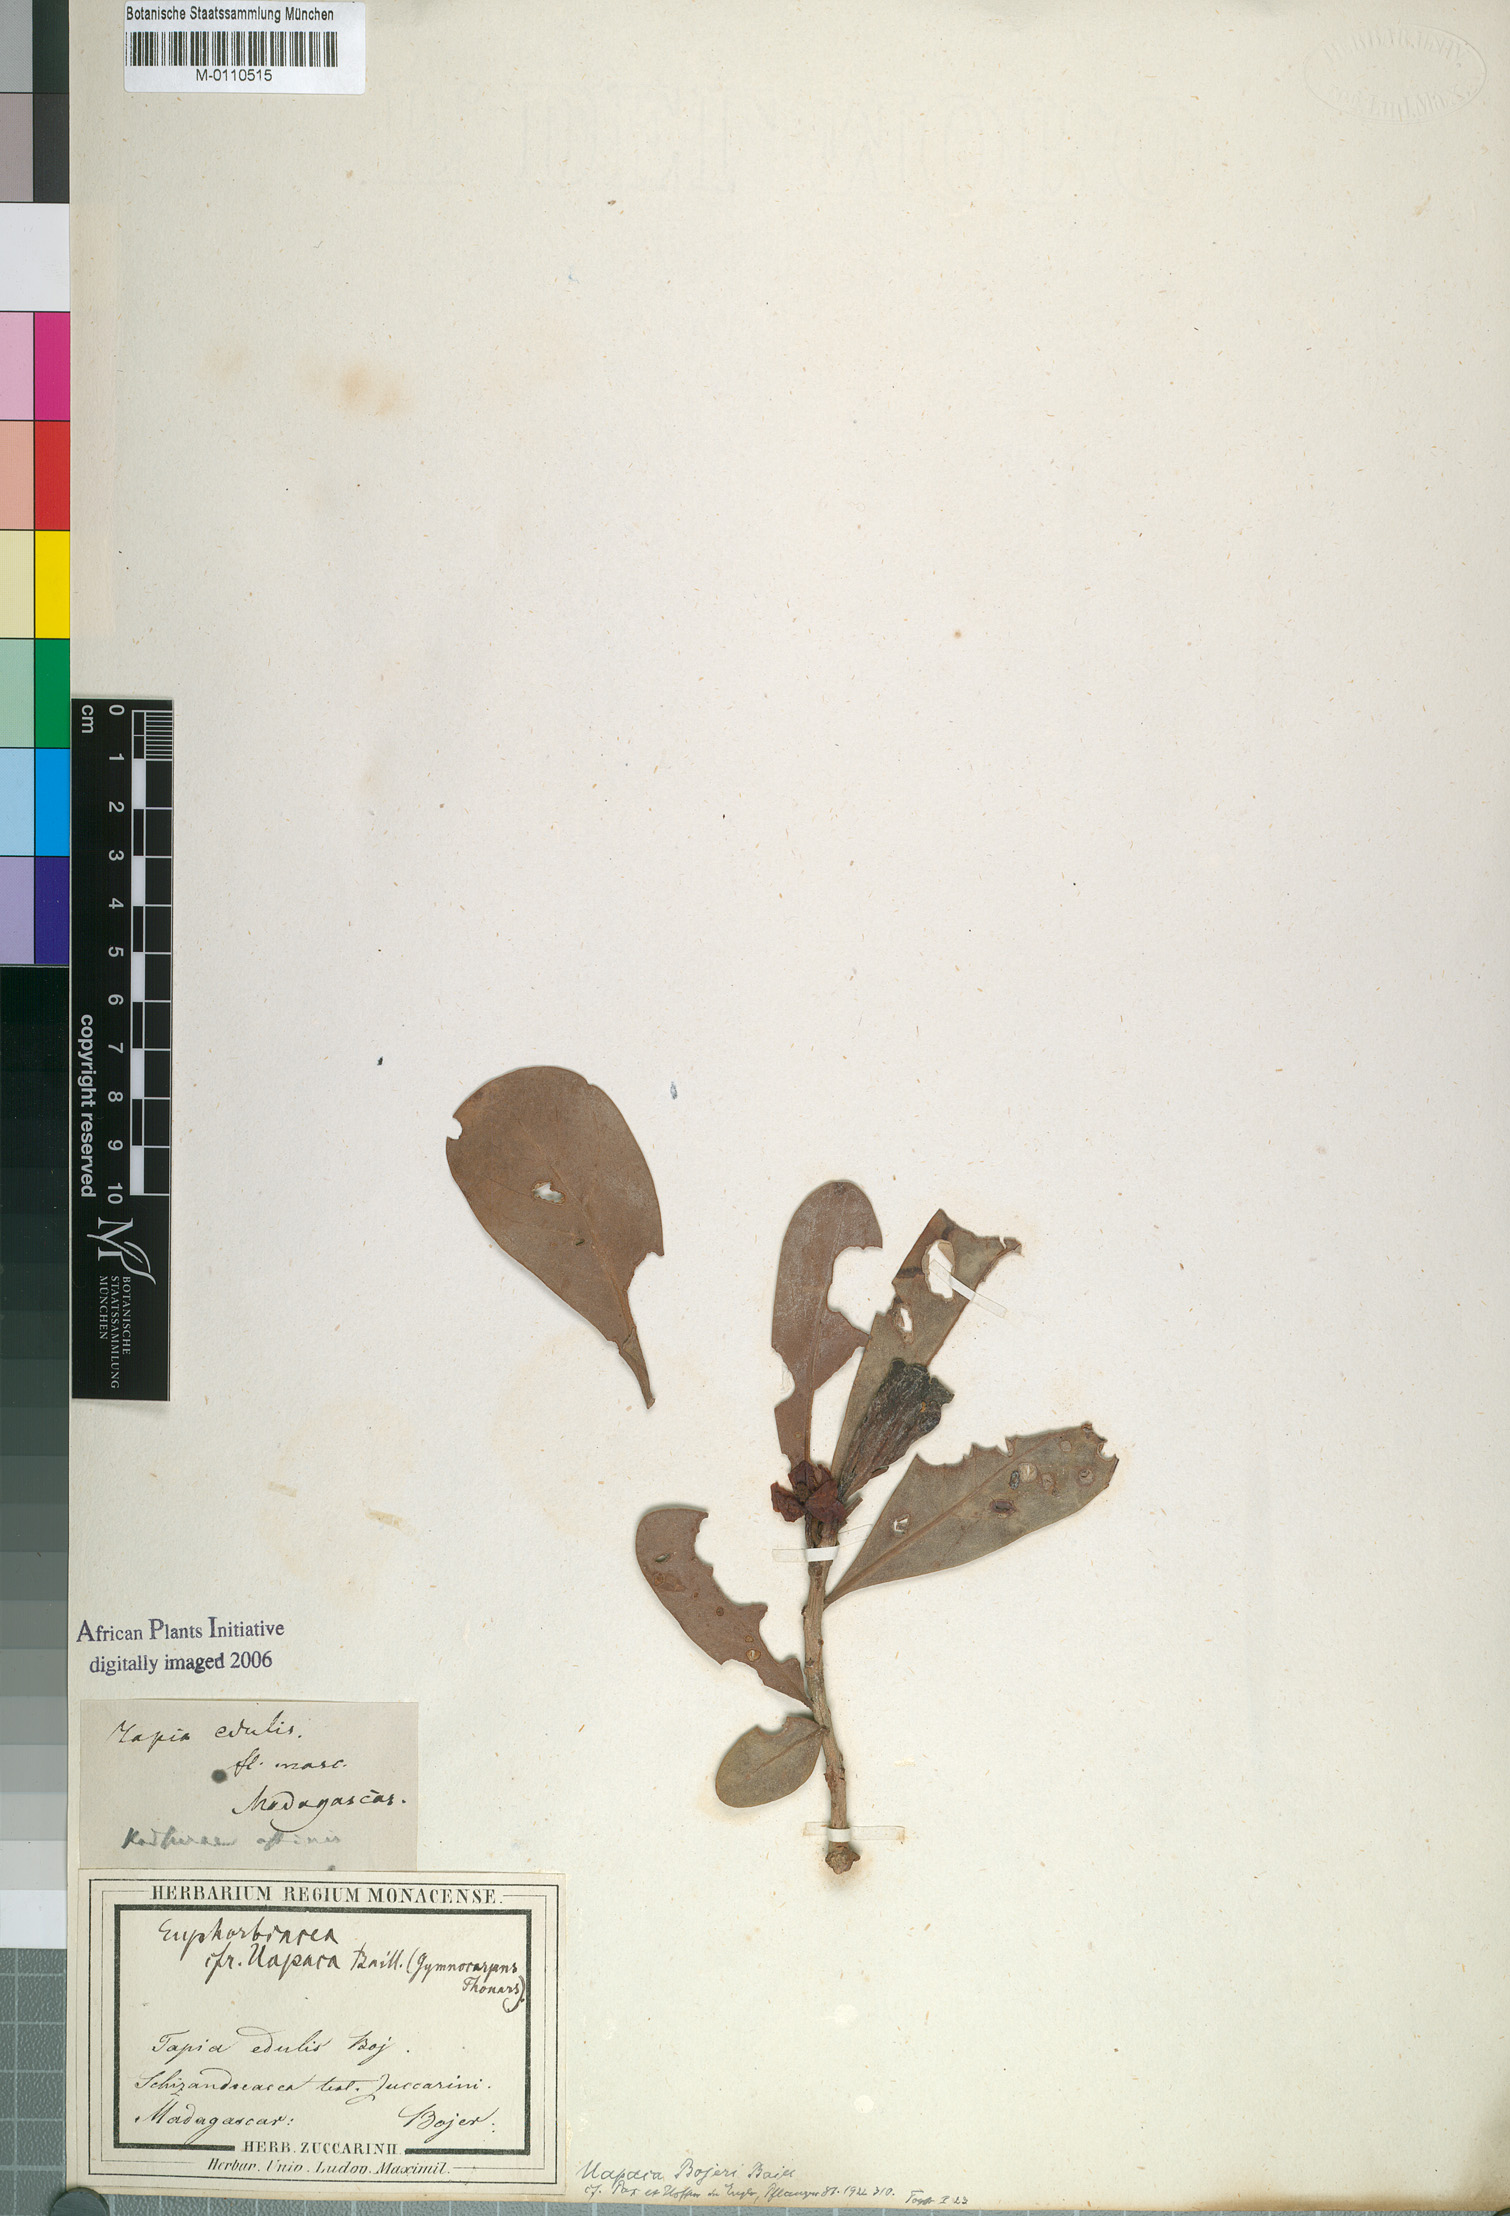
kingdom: Plantae
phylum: Tracheophyta
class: Magnoliopsida
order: Malpighiales
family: Phyllanthaceae
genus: Uapaca
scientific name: Uapaca bojeri
